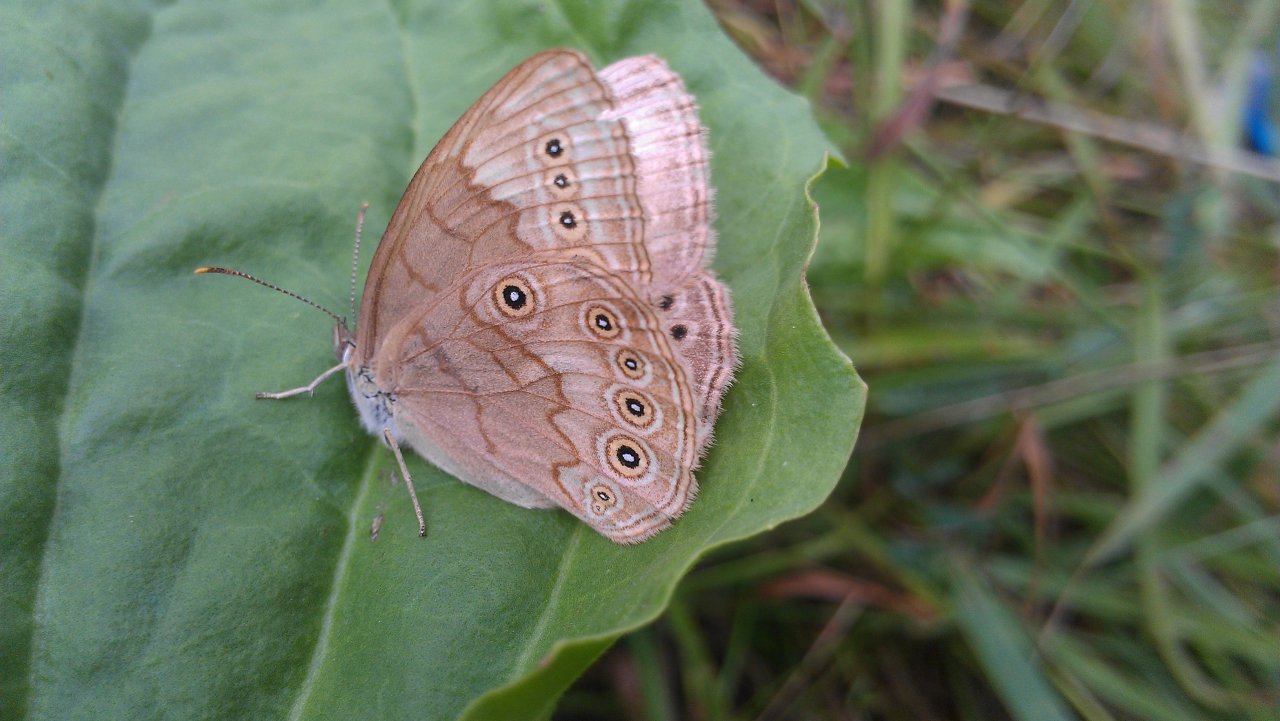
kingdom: Animalia
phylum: Arthropoda
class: Insecta
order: Lepidoptera
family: Nymphalidae
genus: Lethe
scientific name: Lethe eurydice
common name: Eyed Brown
